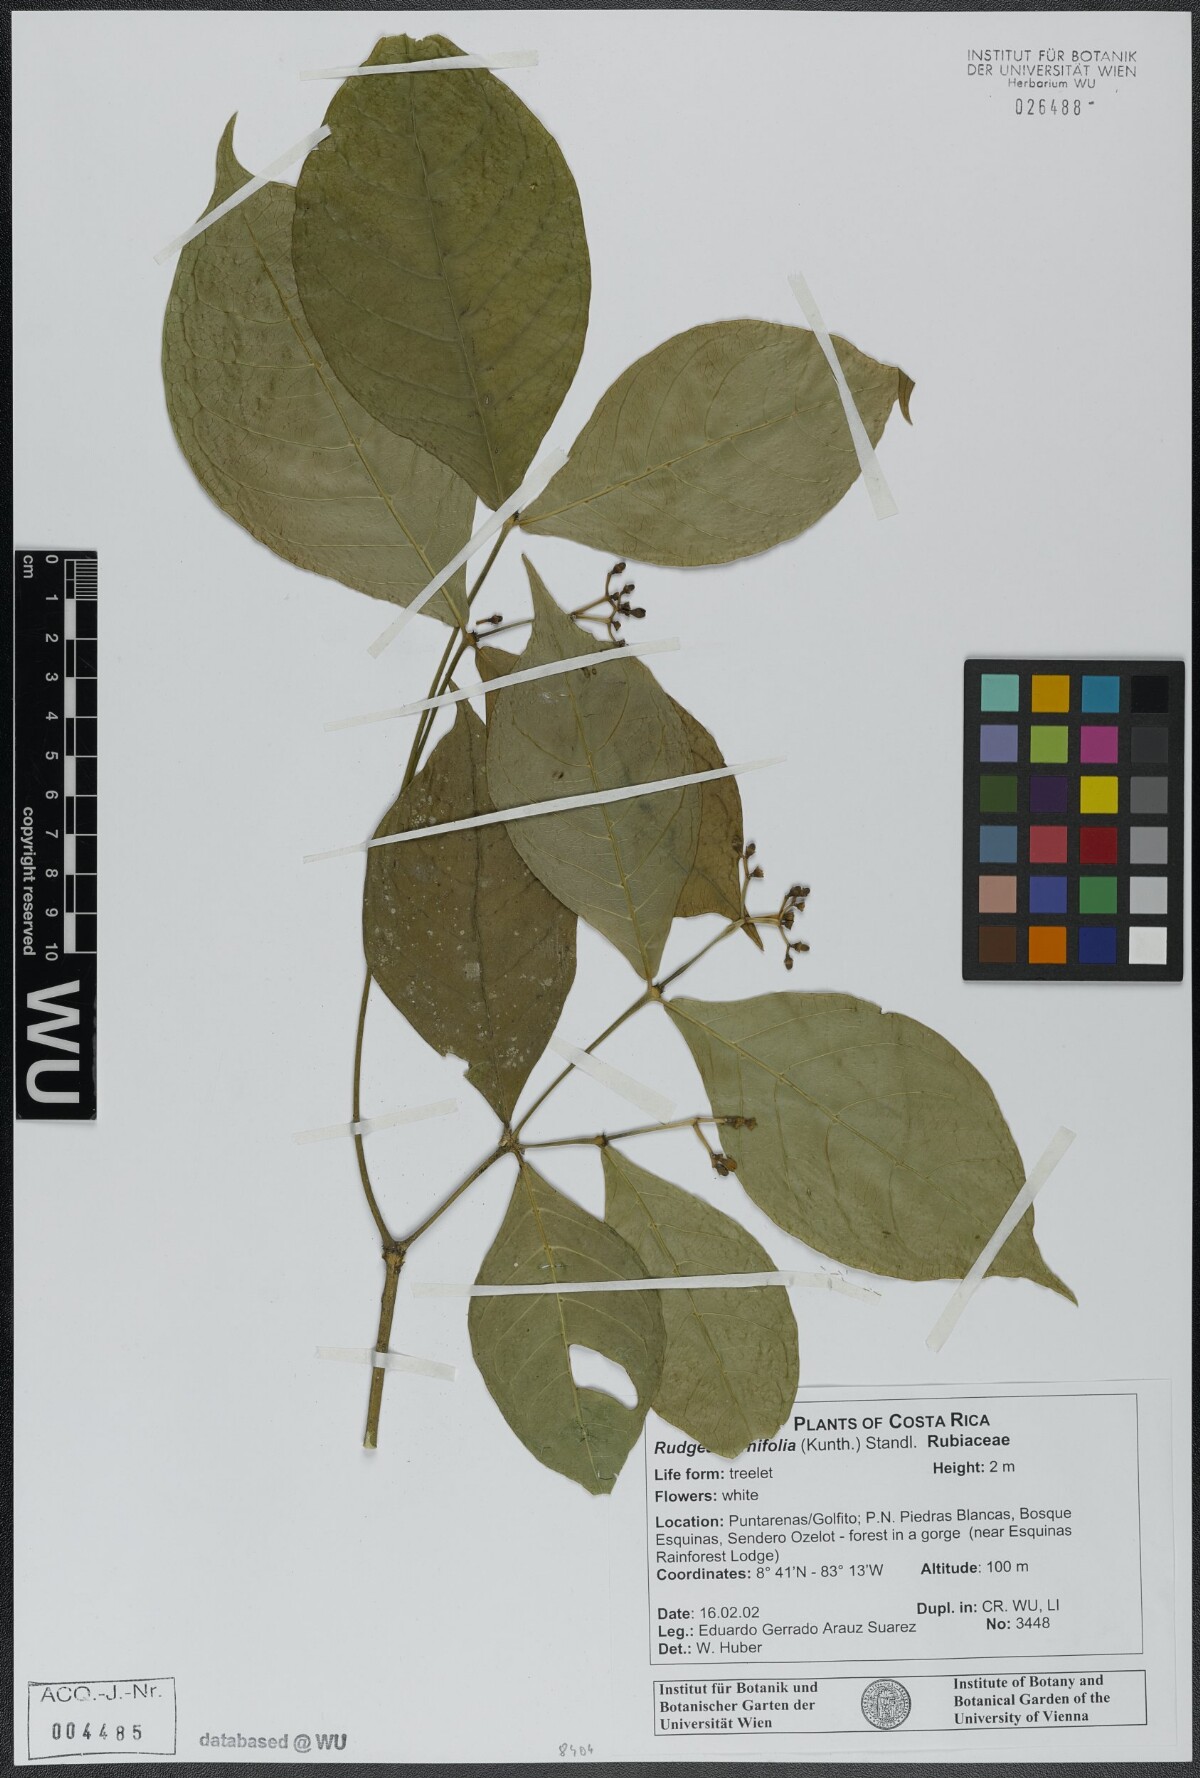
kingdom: Plantae
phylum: Tracheophyta
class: Magnoliopsida
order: Gentianales
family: Rubiaceae
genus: Rudgea
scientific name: Rudgea cornifolia
